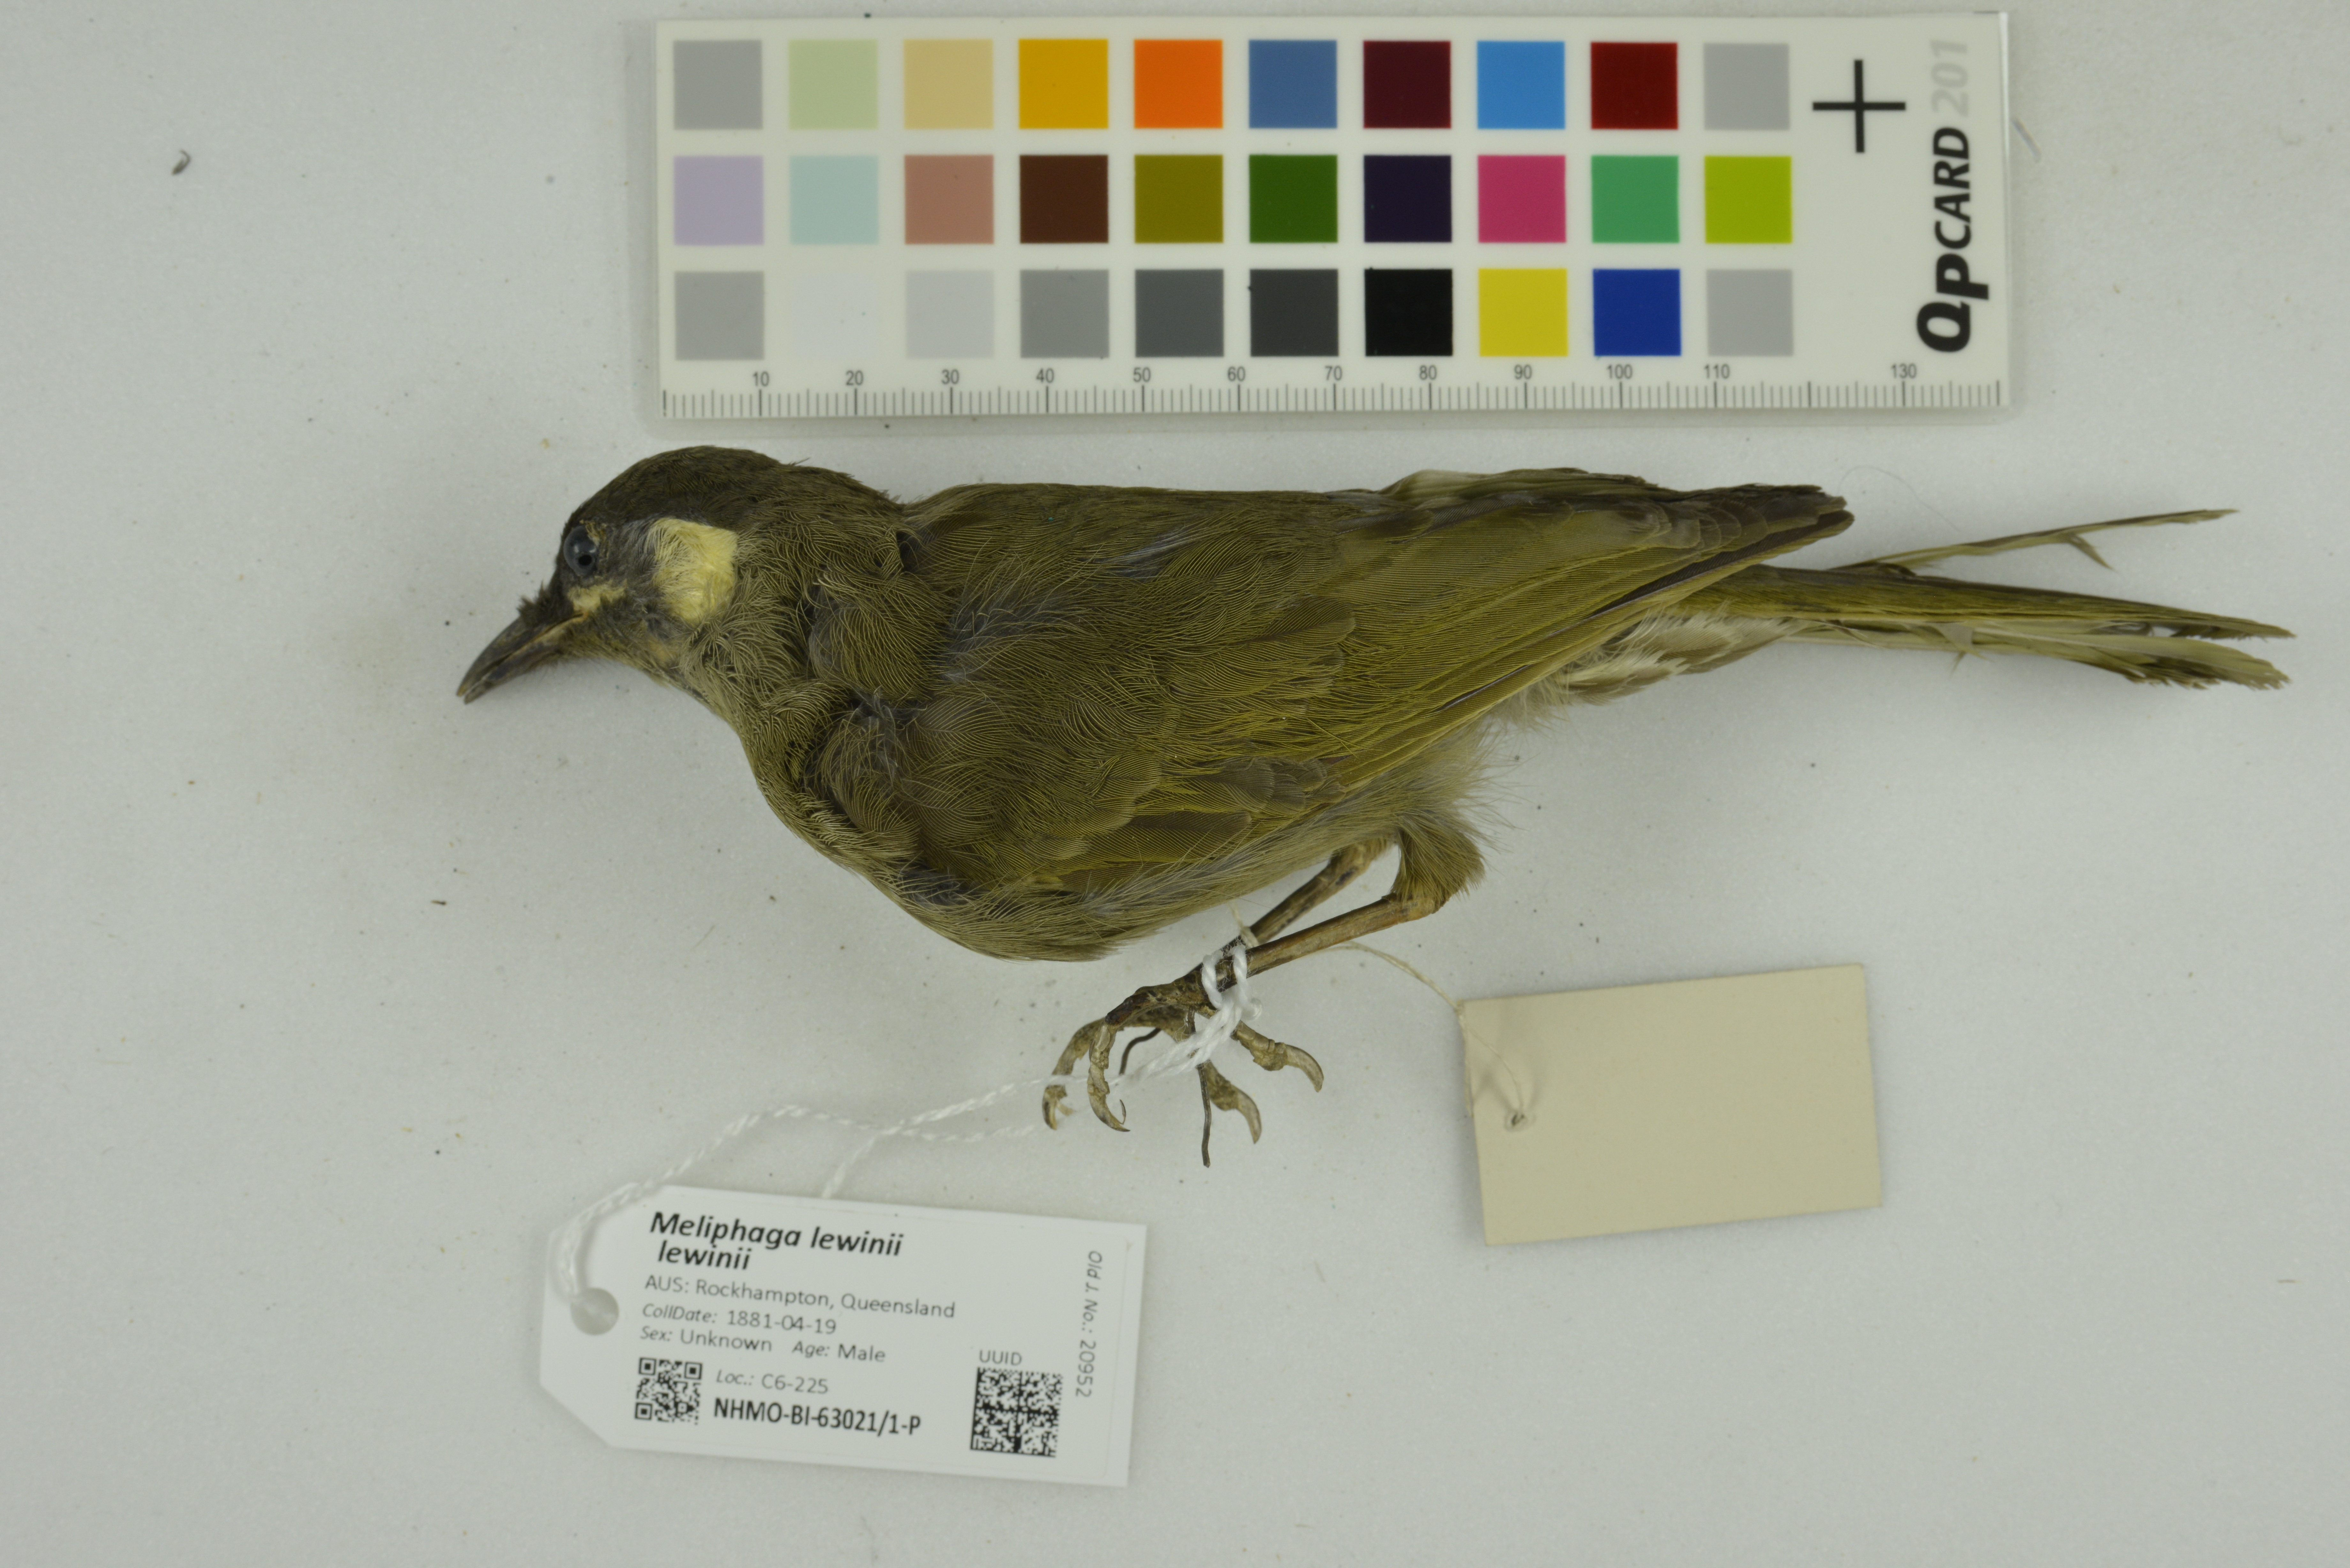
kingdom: Animalia
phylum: Chordata
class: Aves
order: Passeriformes
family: Meliphagidae
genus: Meliphaga
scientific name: Meliphaga lewinii
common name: Lewin's honeyeater
